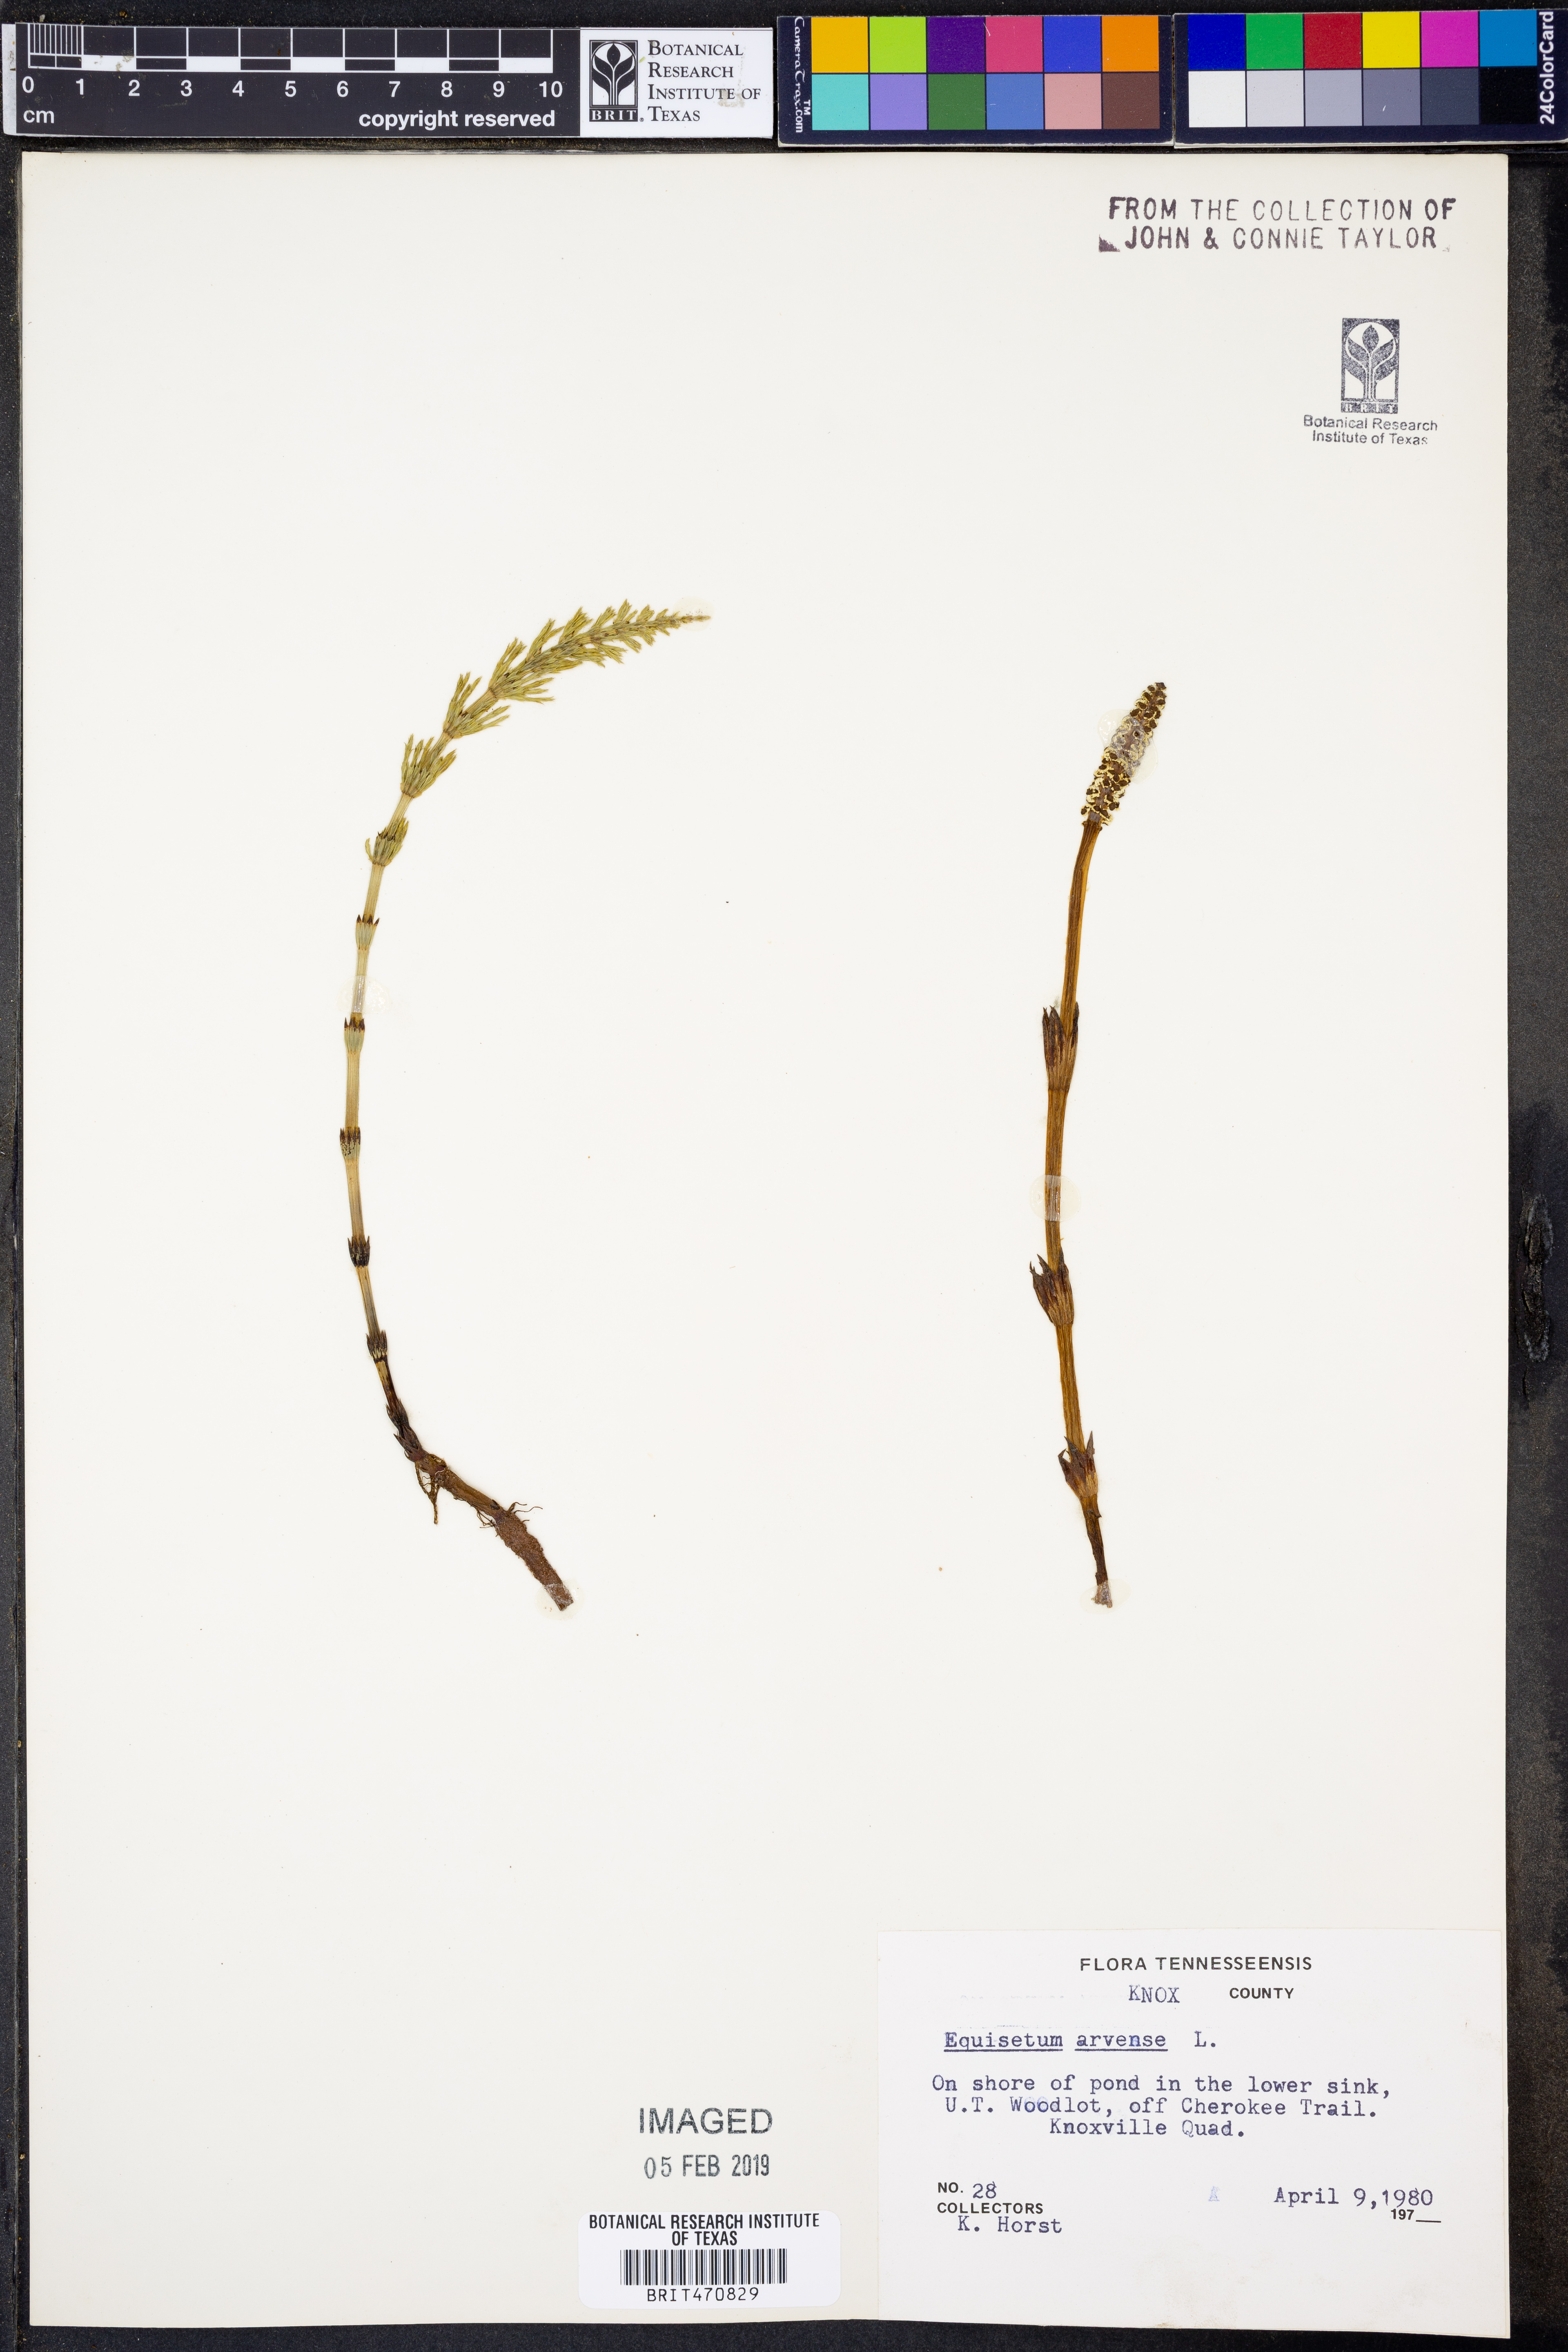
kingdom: Plantae
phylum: Tracheophyta
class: Polypodiopsida
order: Equisetales
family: Equisetaceae
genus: Equisetum
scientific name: Equisetum arvense
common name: Field horsetail
